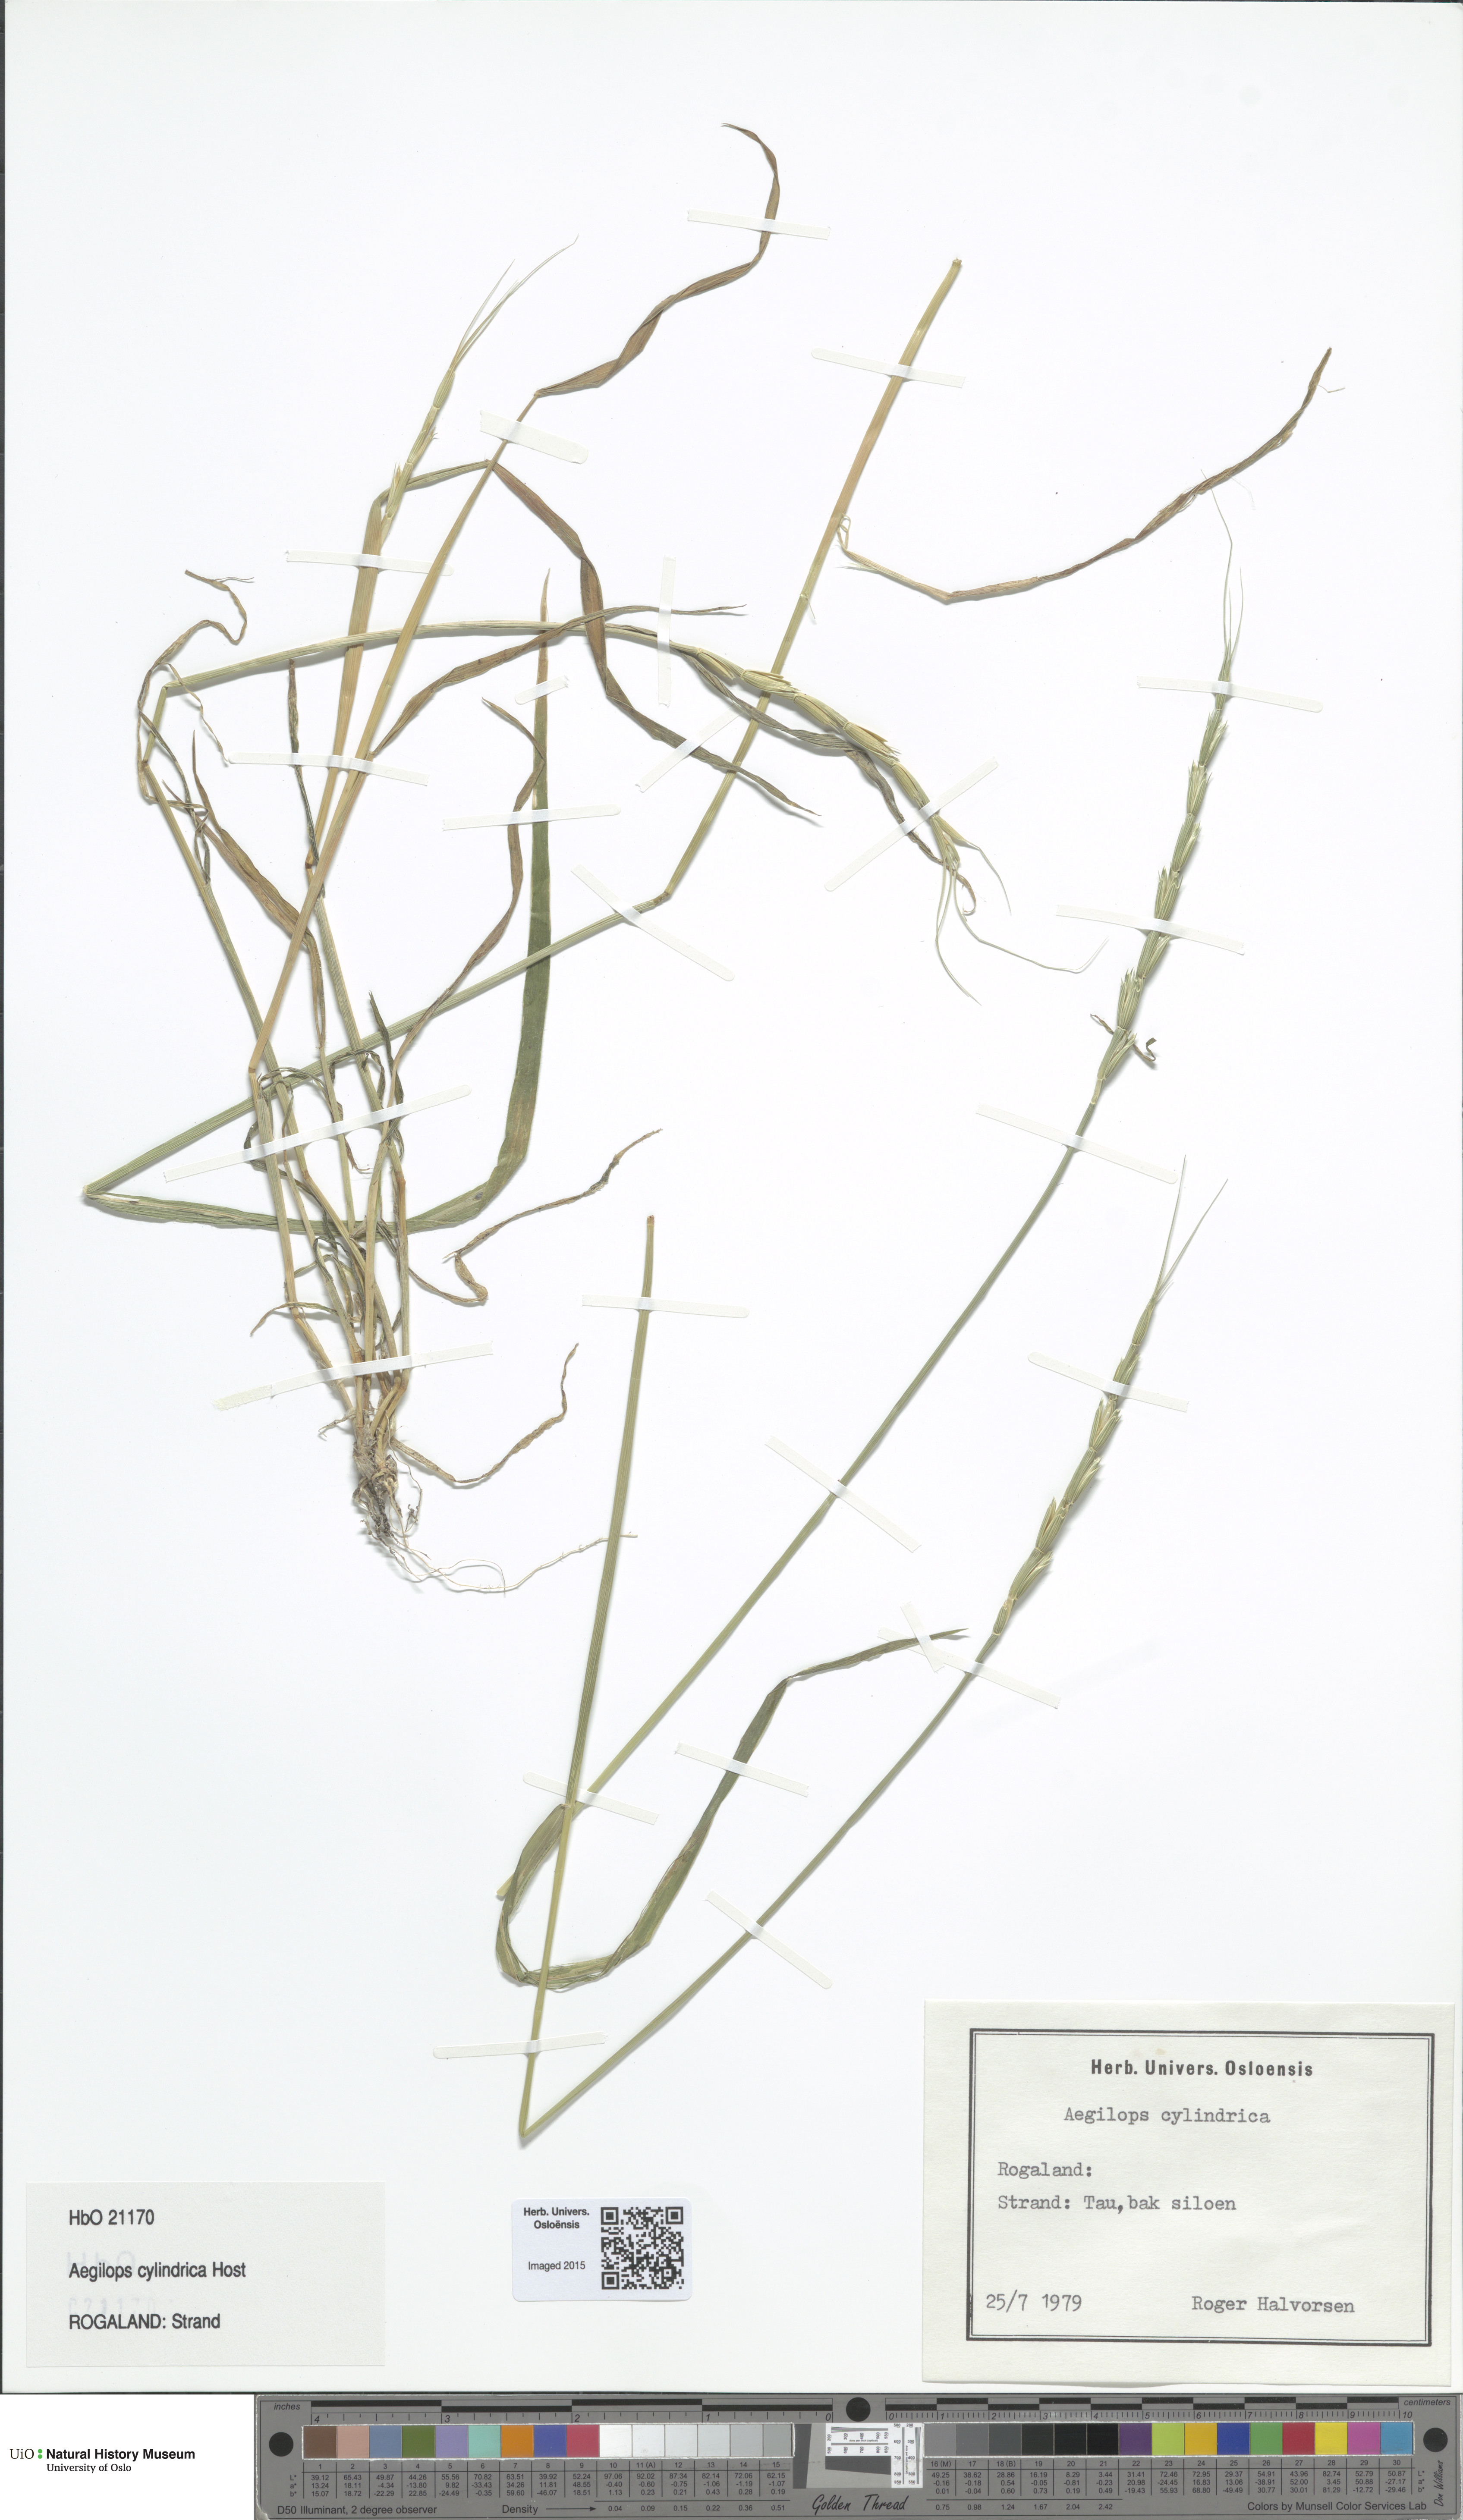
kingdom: Plantae
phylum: Tracheophyta
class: Liliopsida
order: Poales
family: Poaceae
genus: Aegilops
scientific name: Aegilops cylindrica
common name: Jointed goatgrass
